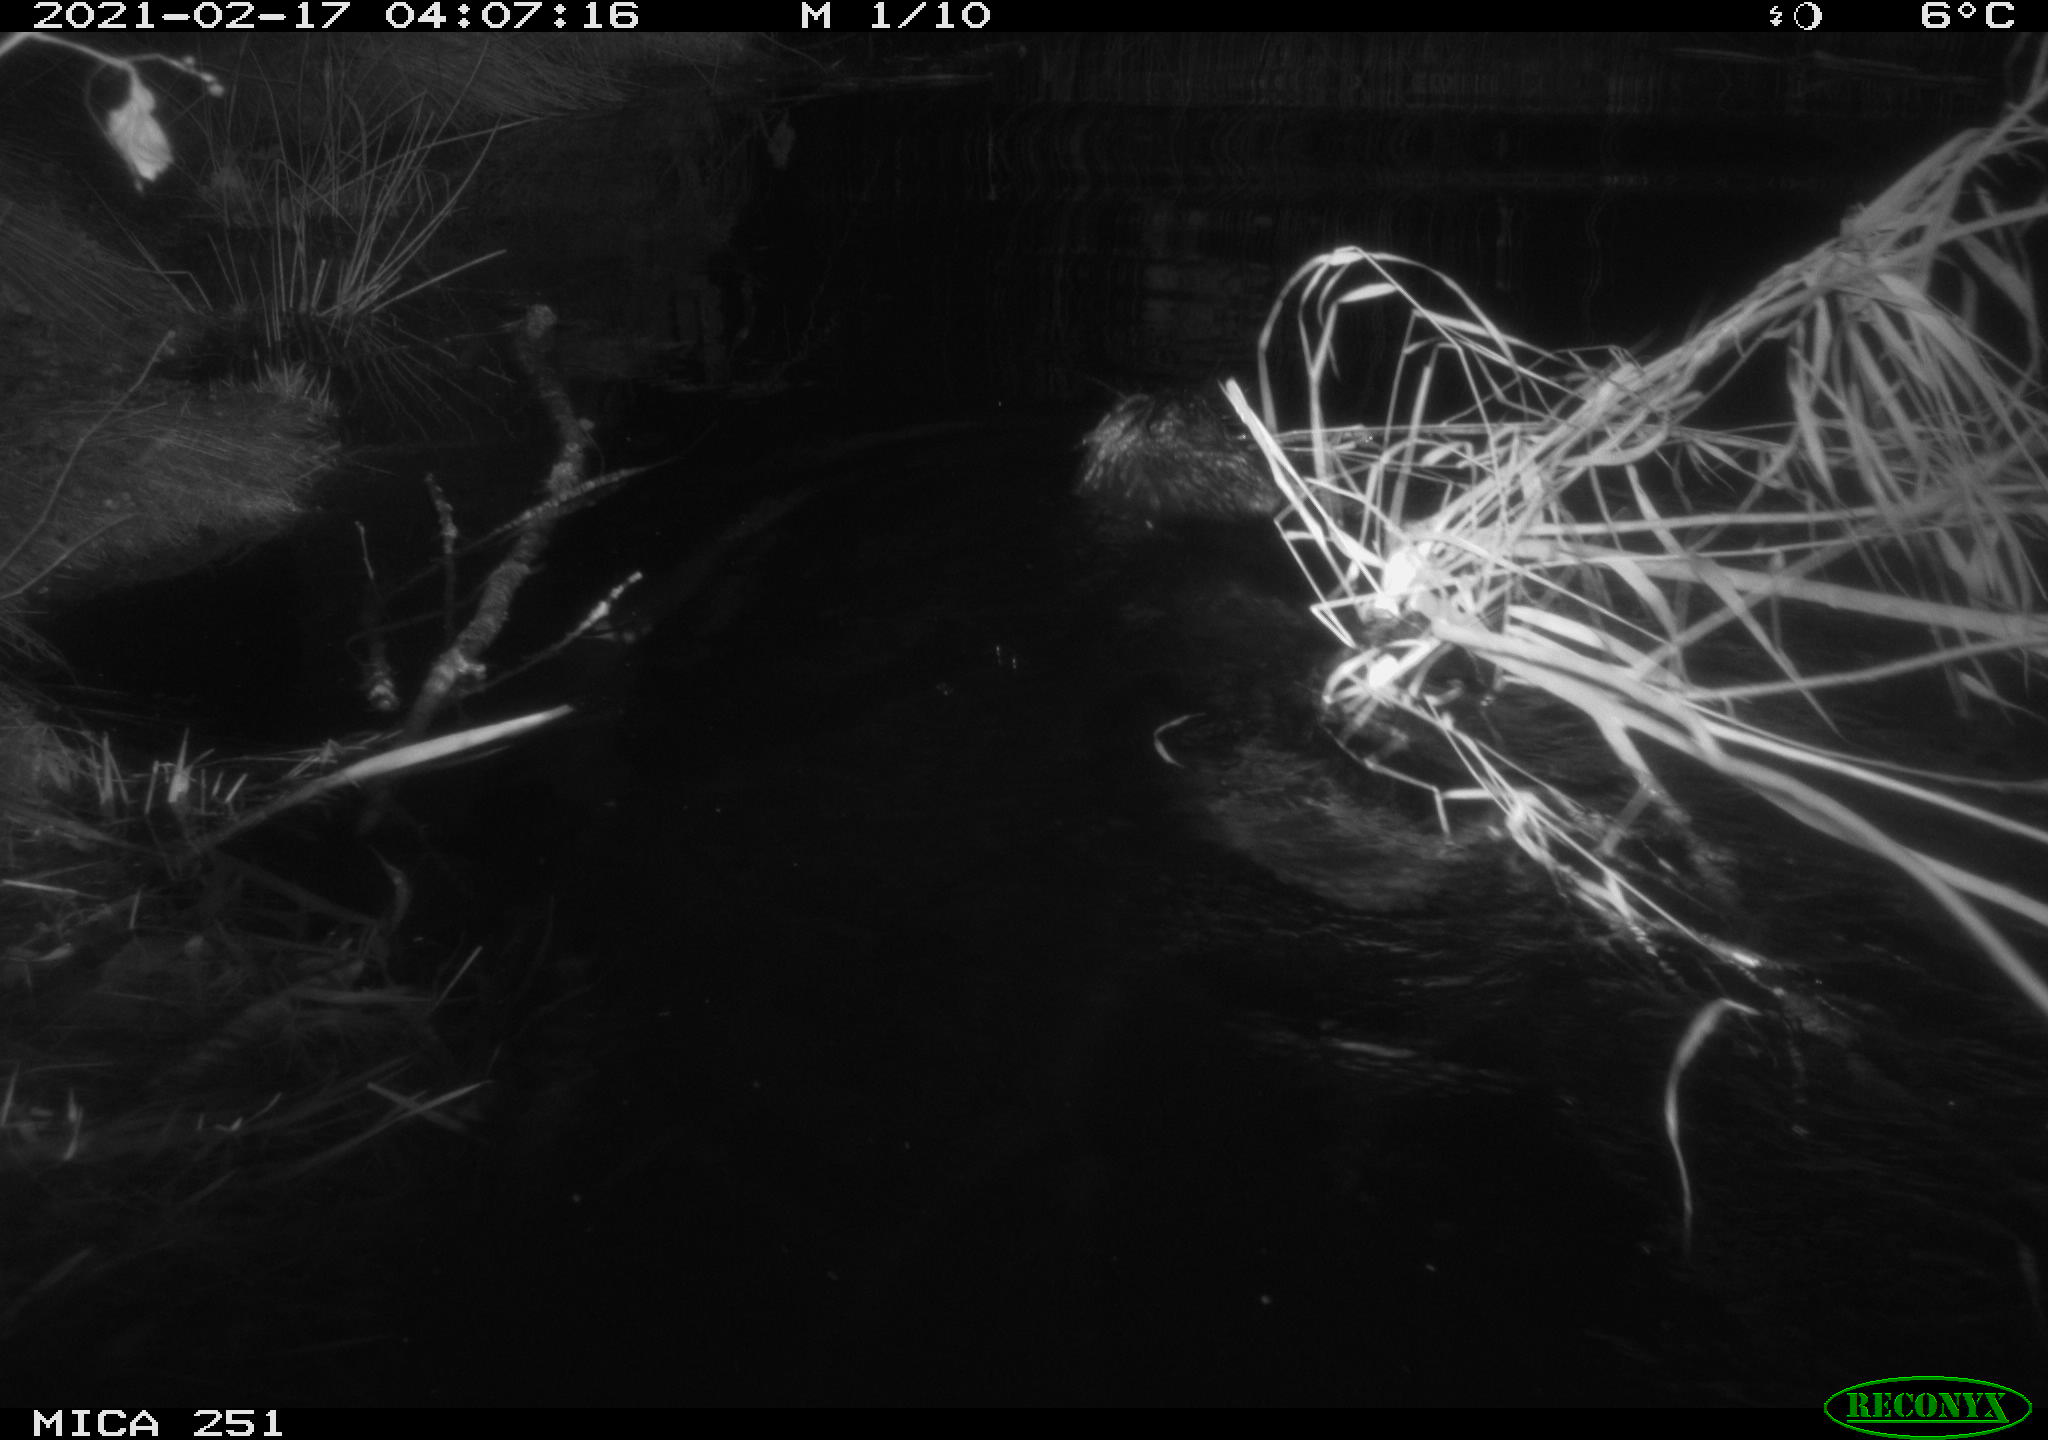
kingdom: Animalia
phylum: Chordata
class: Mammalia
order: Rodentia
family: Castoridae
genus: Castor
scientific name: Castor fiber
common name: Eurasian beaver
